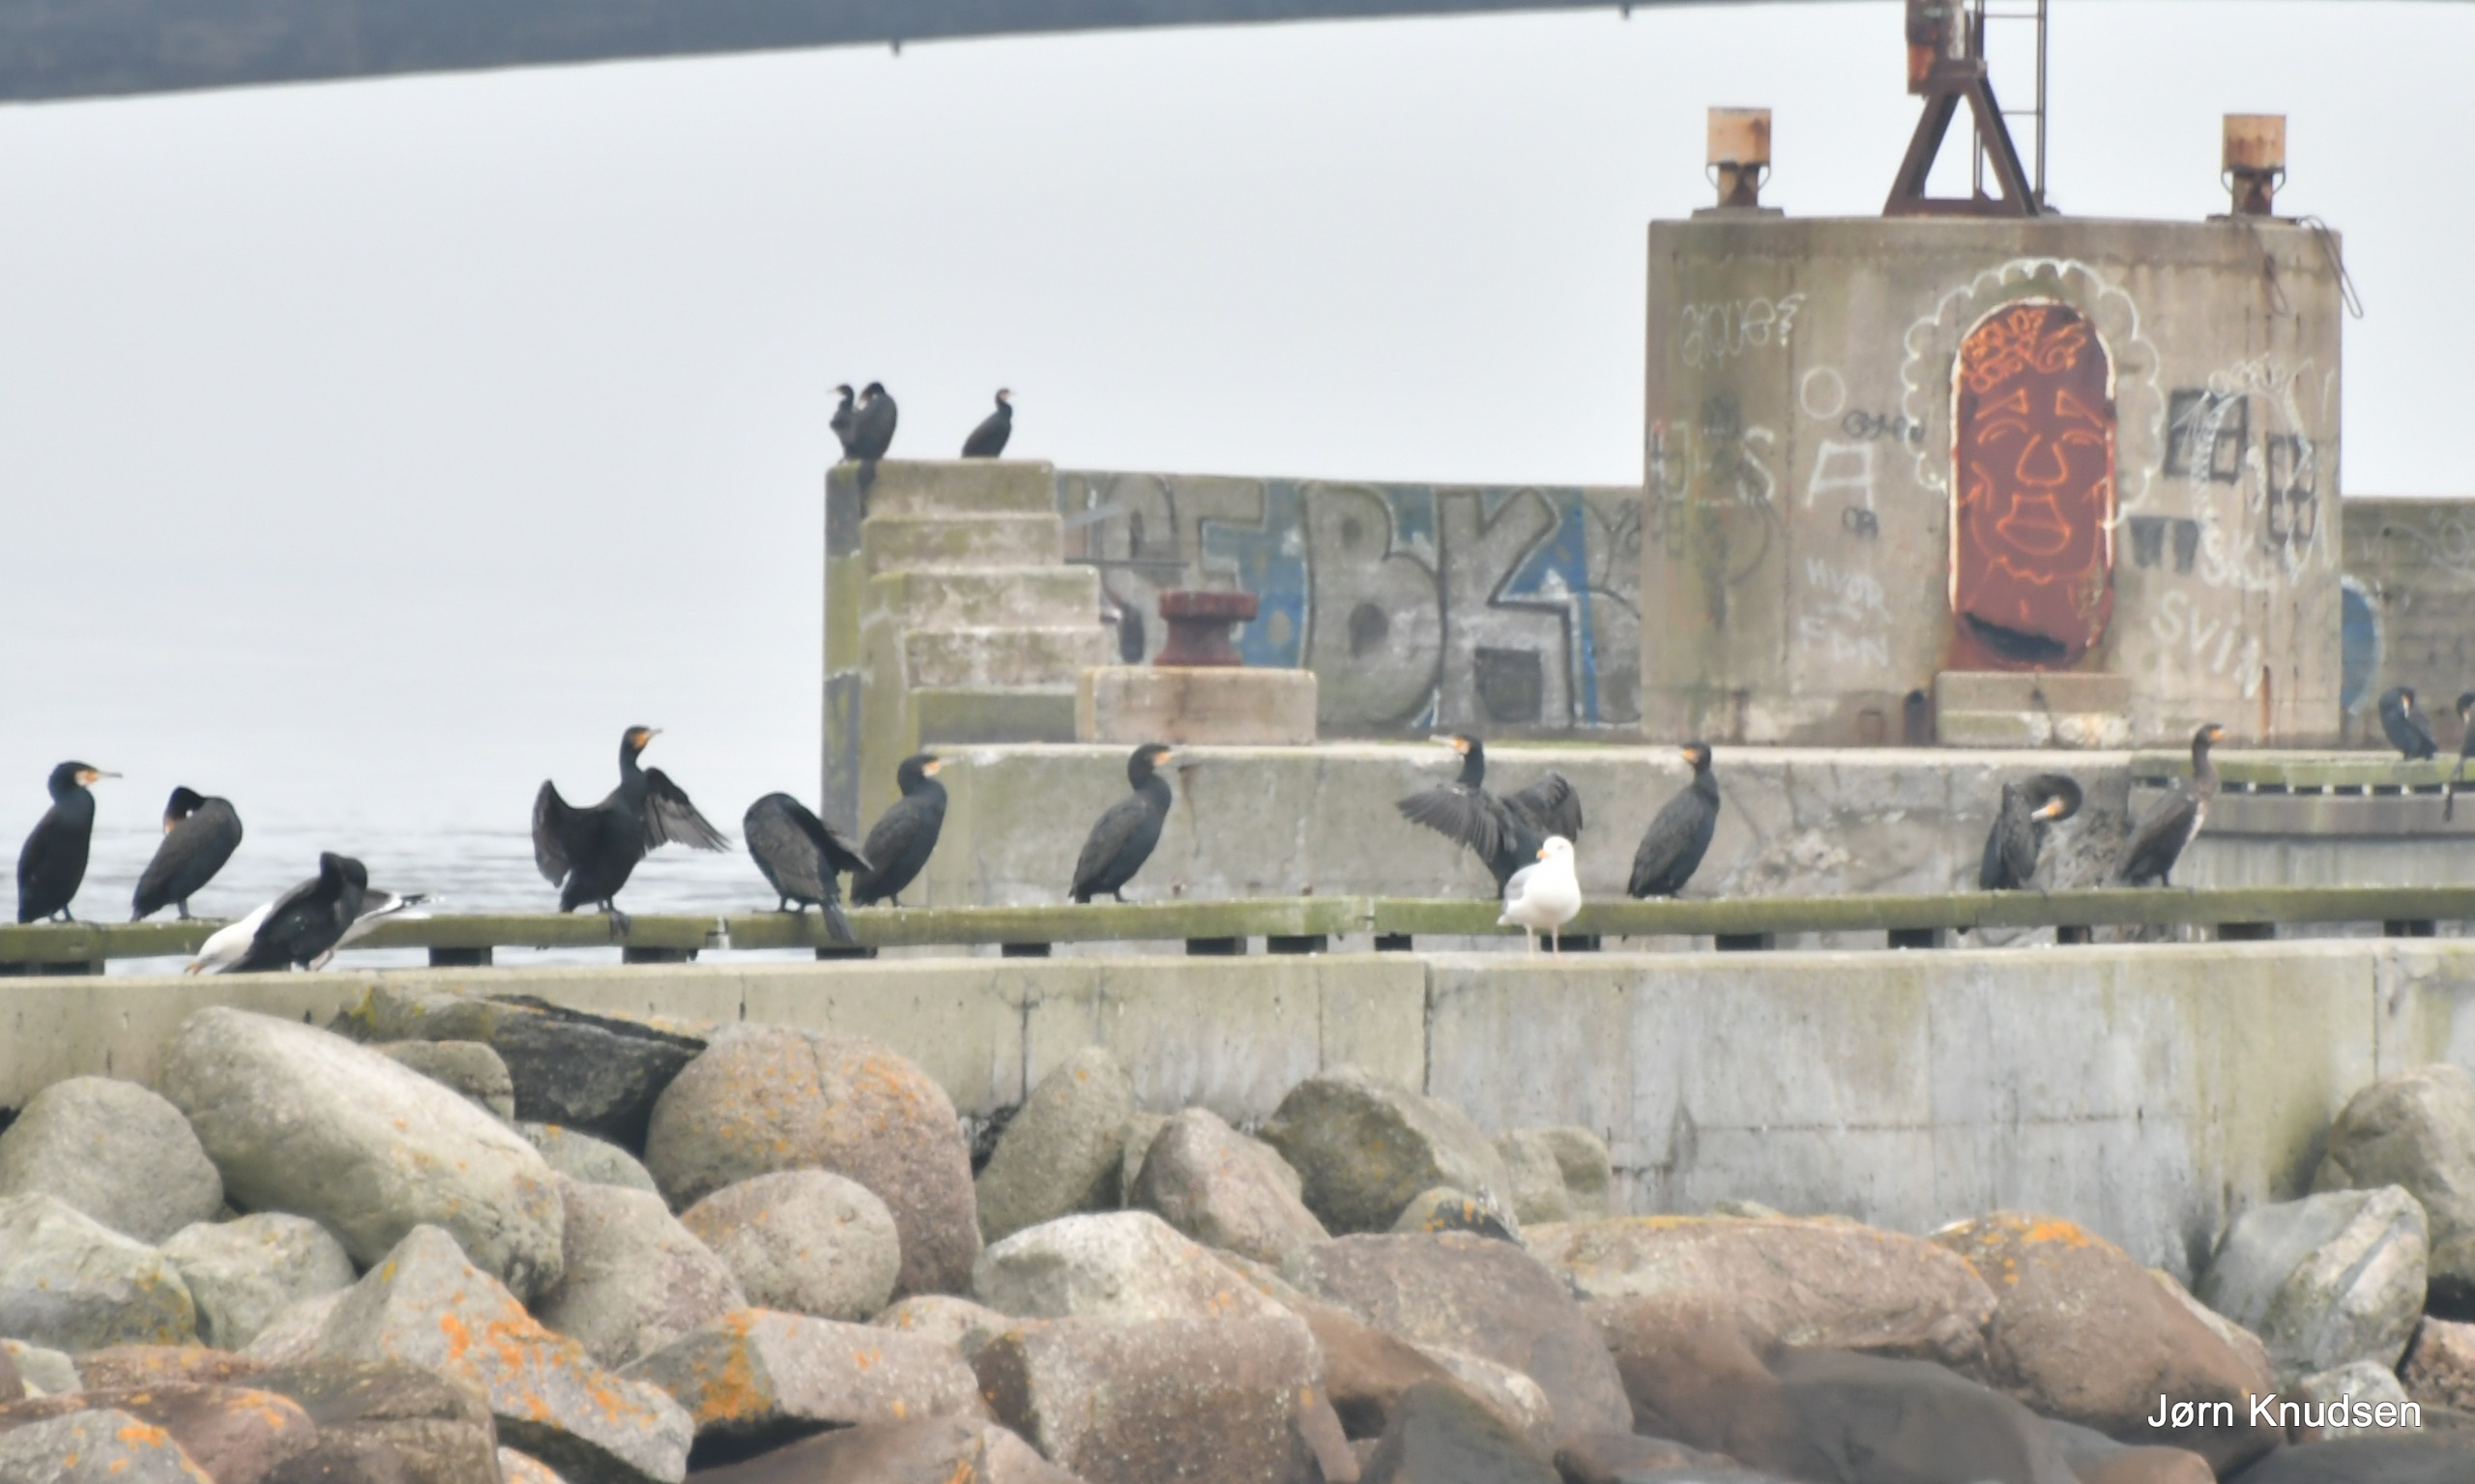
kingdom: Animalia
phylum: Chordata
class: Aves
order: Suliformes
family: Phalacrocoracidae
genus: Phalacrocorax
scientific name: Phalacrocorax carbo
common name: Skarv
